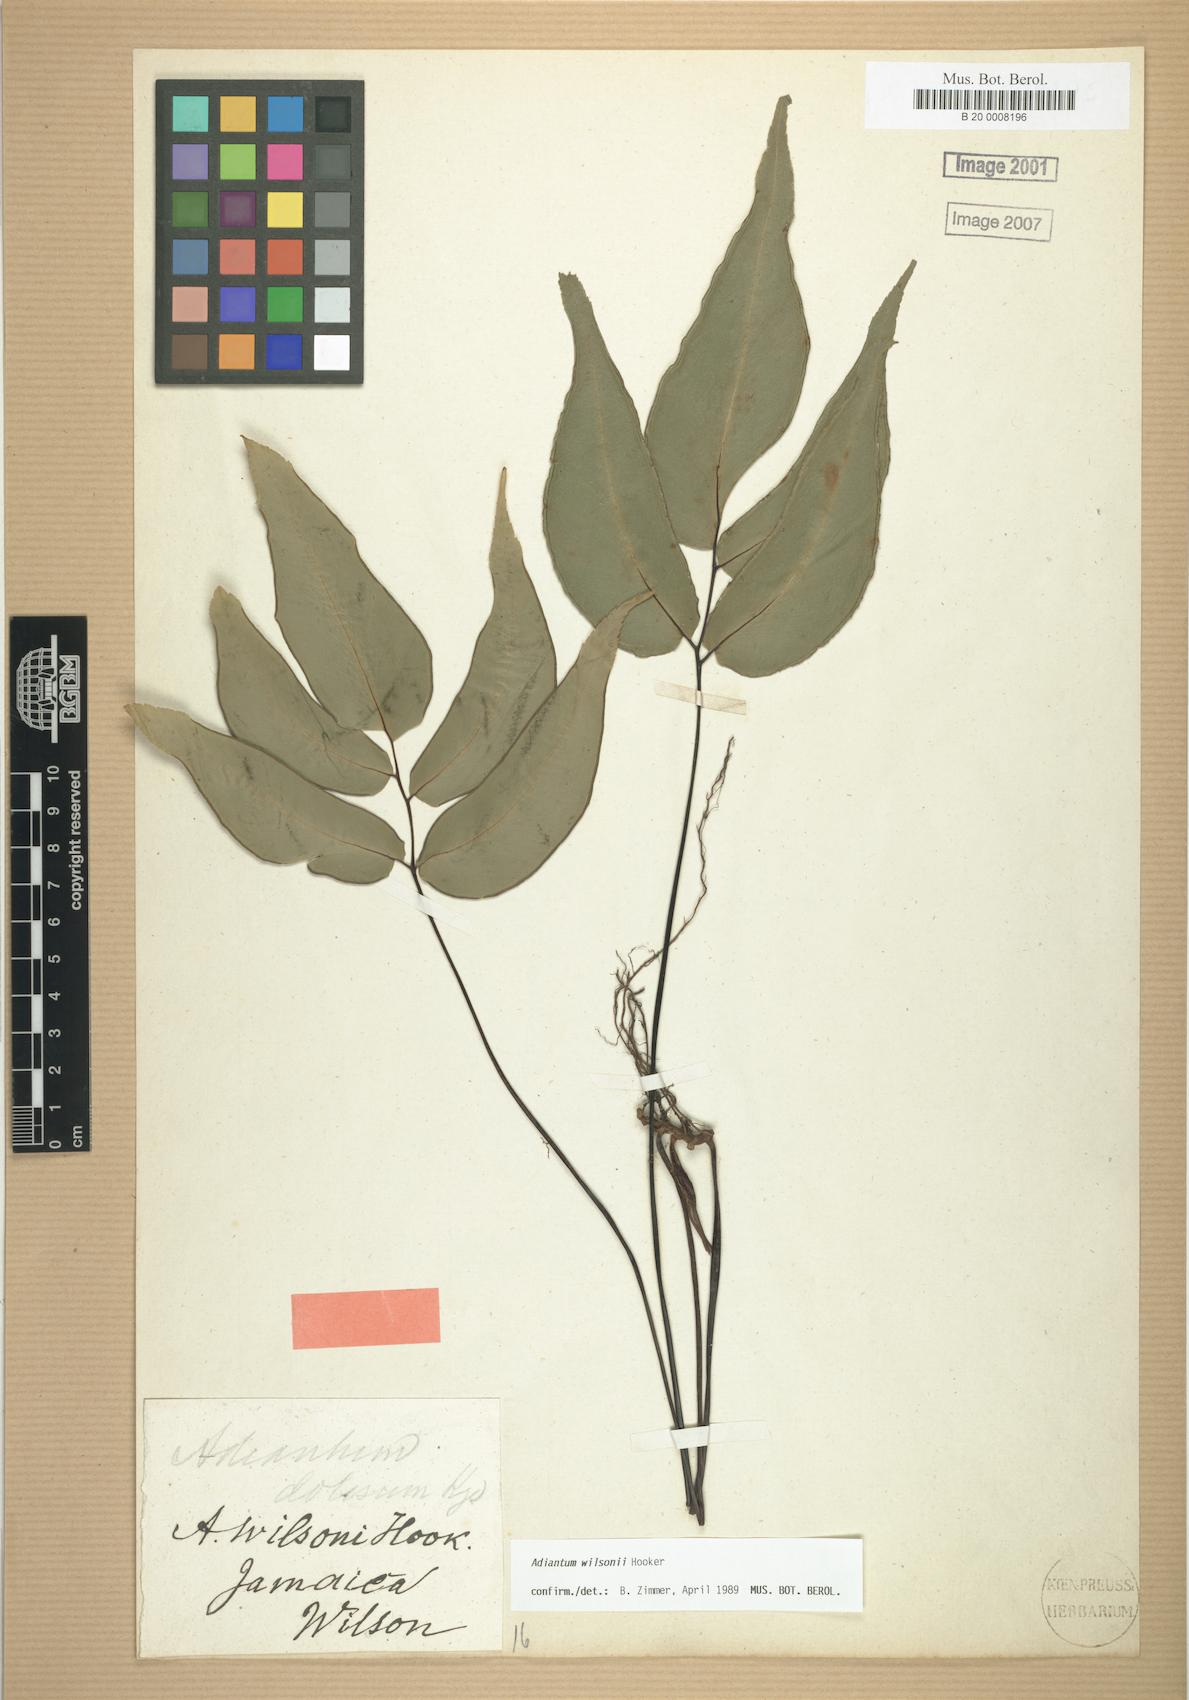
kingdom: Plantae
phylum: Tracheophyta
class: Polypodiopsida
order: Polypodiales
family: Pteridaceae
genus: Adiantum
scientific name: Adiantum wilsonii
